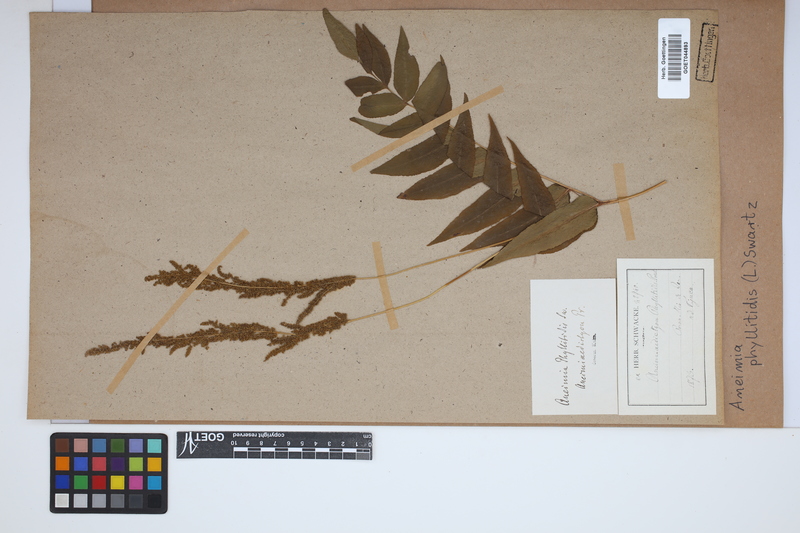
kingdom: Plantae
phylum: Tracheophyta
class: Polypodiopsida
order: Schizaeales
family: Anemiaceae
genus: Anemia
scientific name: Anemia phyllitidis
